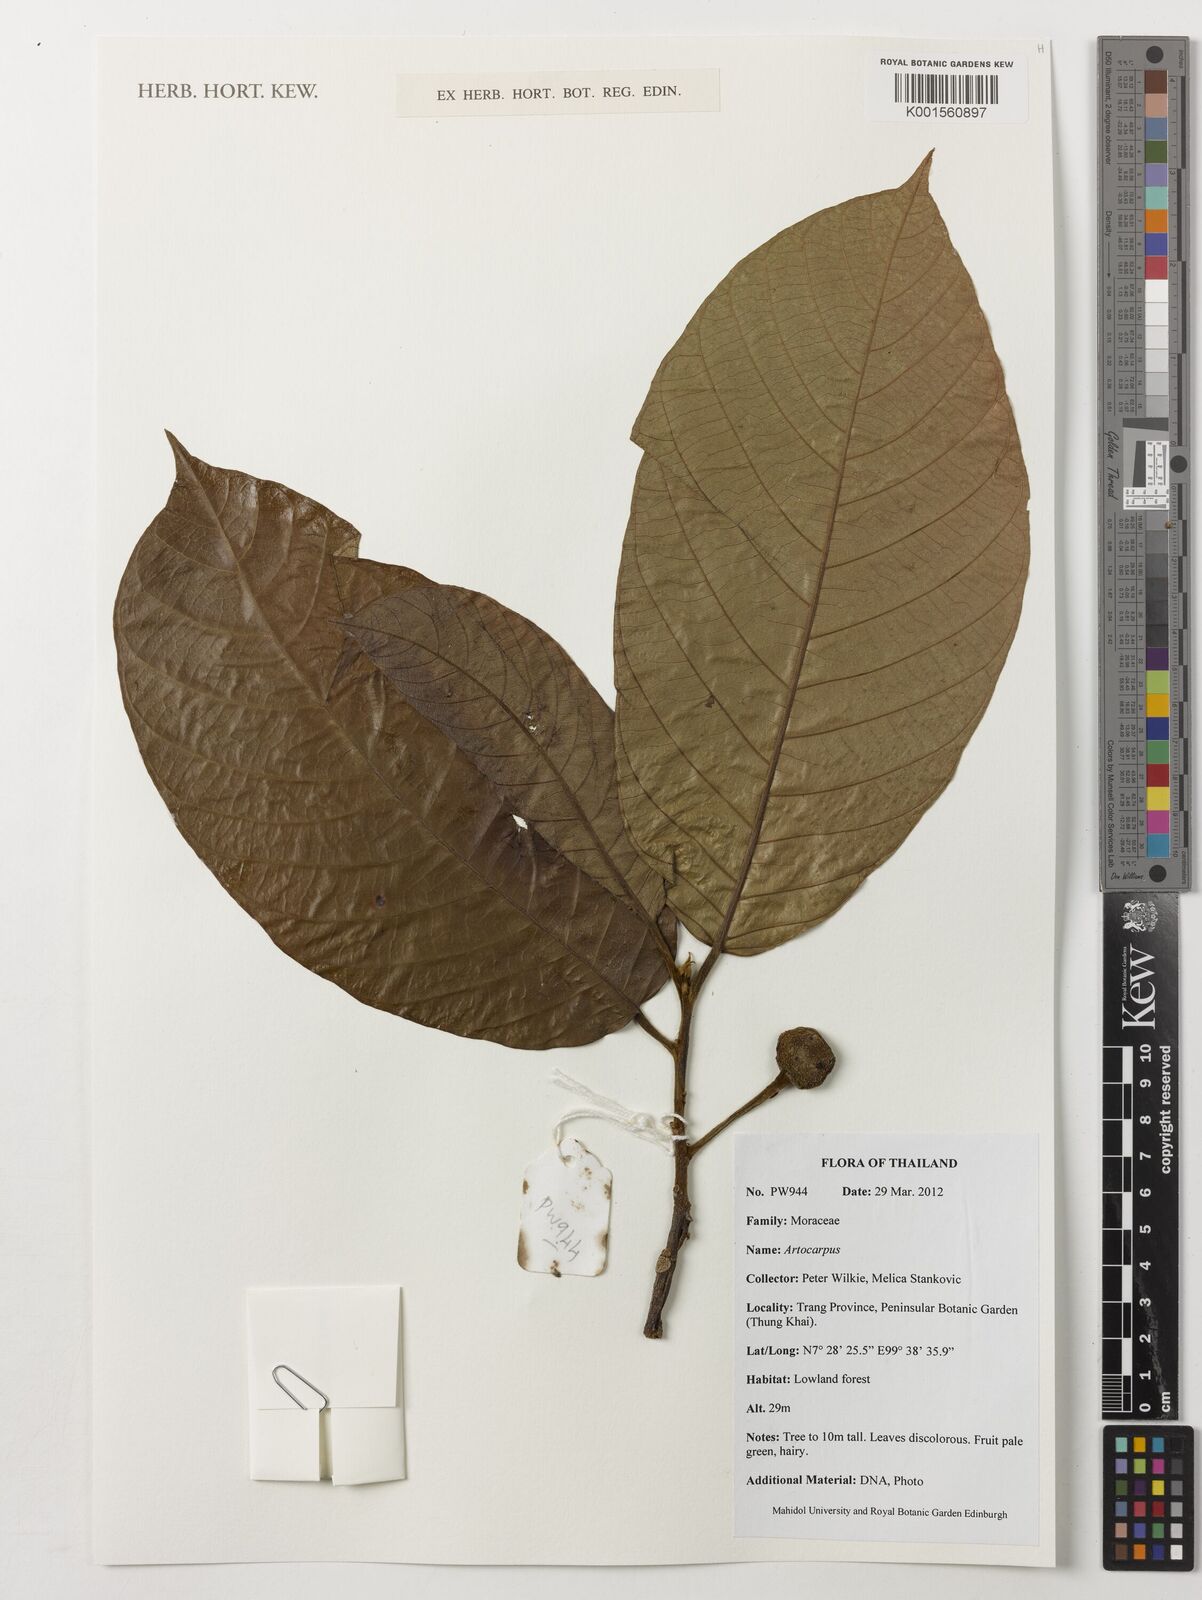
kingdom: Plantae
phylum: Tracheophyta
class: Magnoliopsida
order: Rosales
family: Moraceae
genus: Artocarpus
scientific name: Artocarpus
